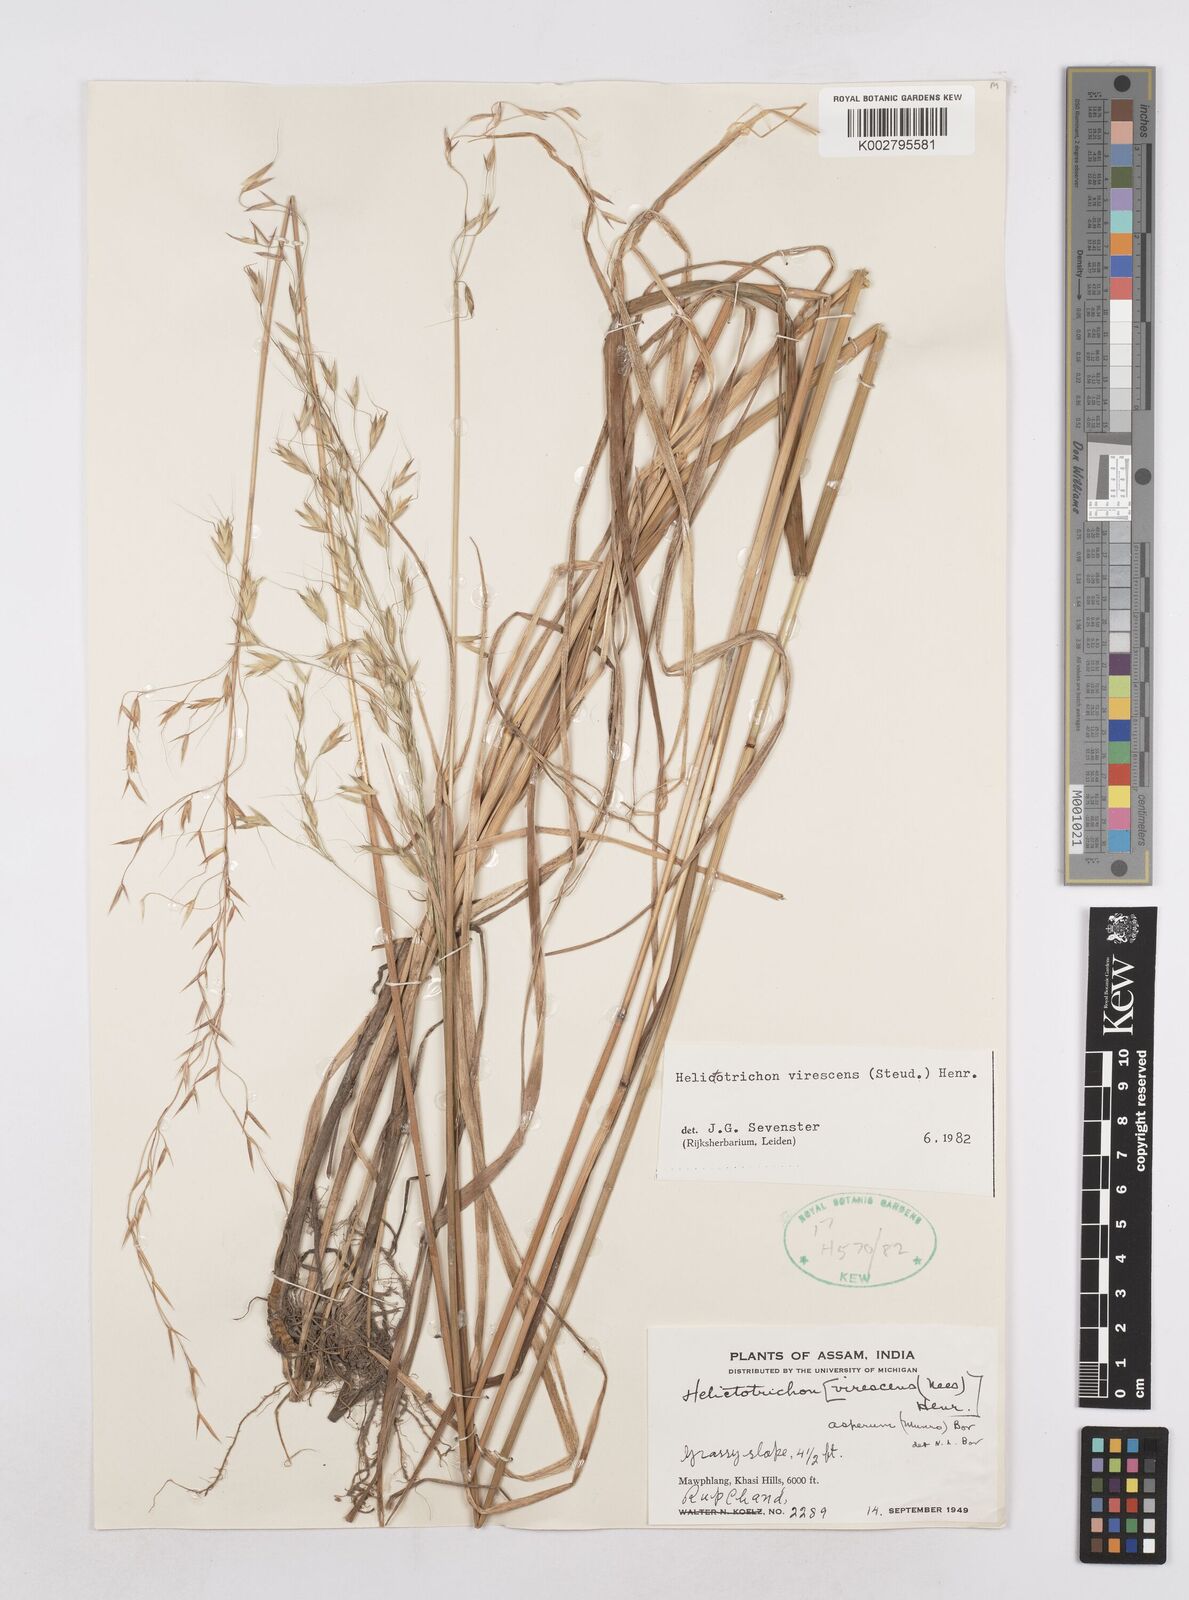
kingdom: Plantae
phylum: Tracheophyta
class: Liliopsida
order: Poales
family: Poaceae
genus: Trisetopsis
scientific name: Trisetopsis junghuhnii
